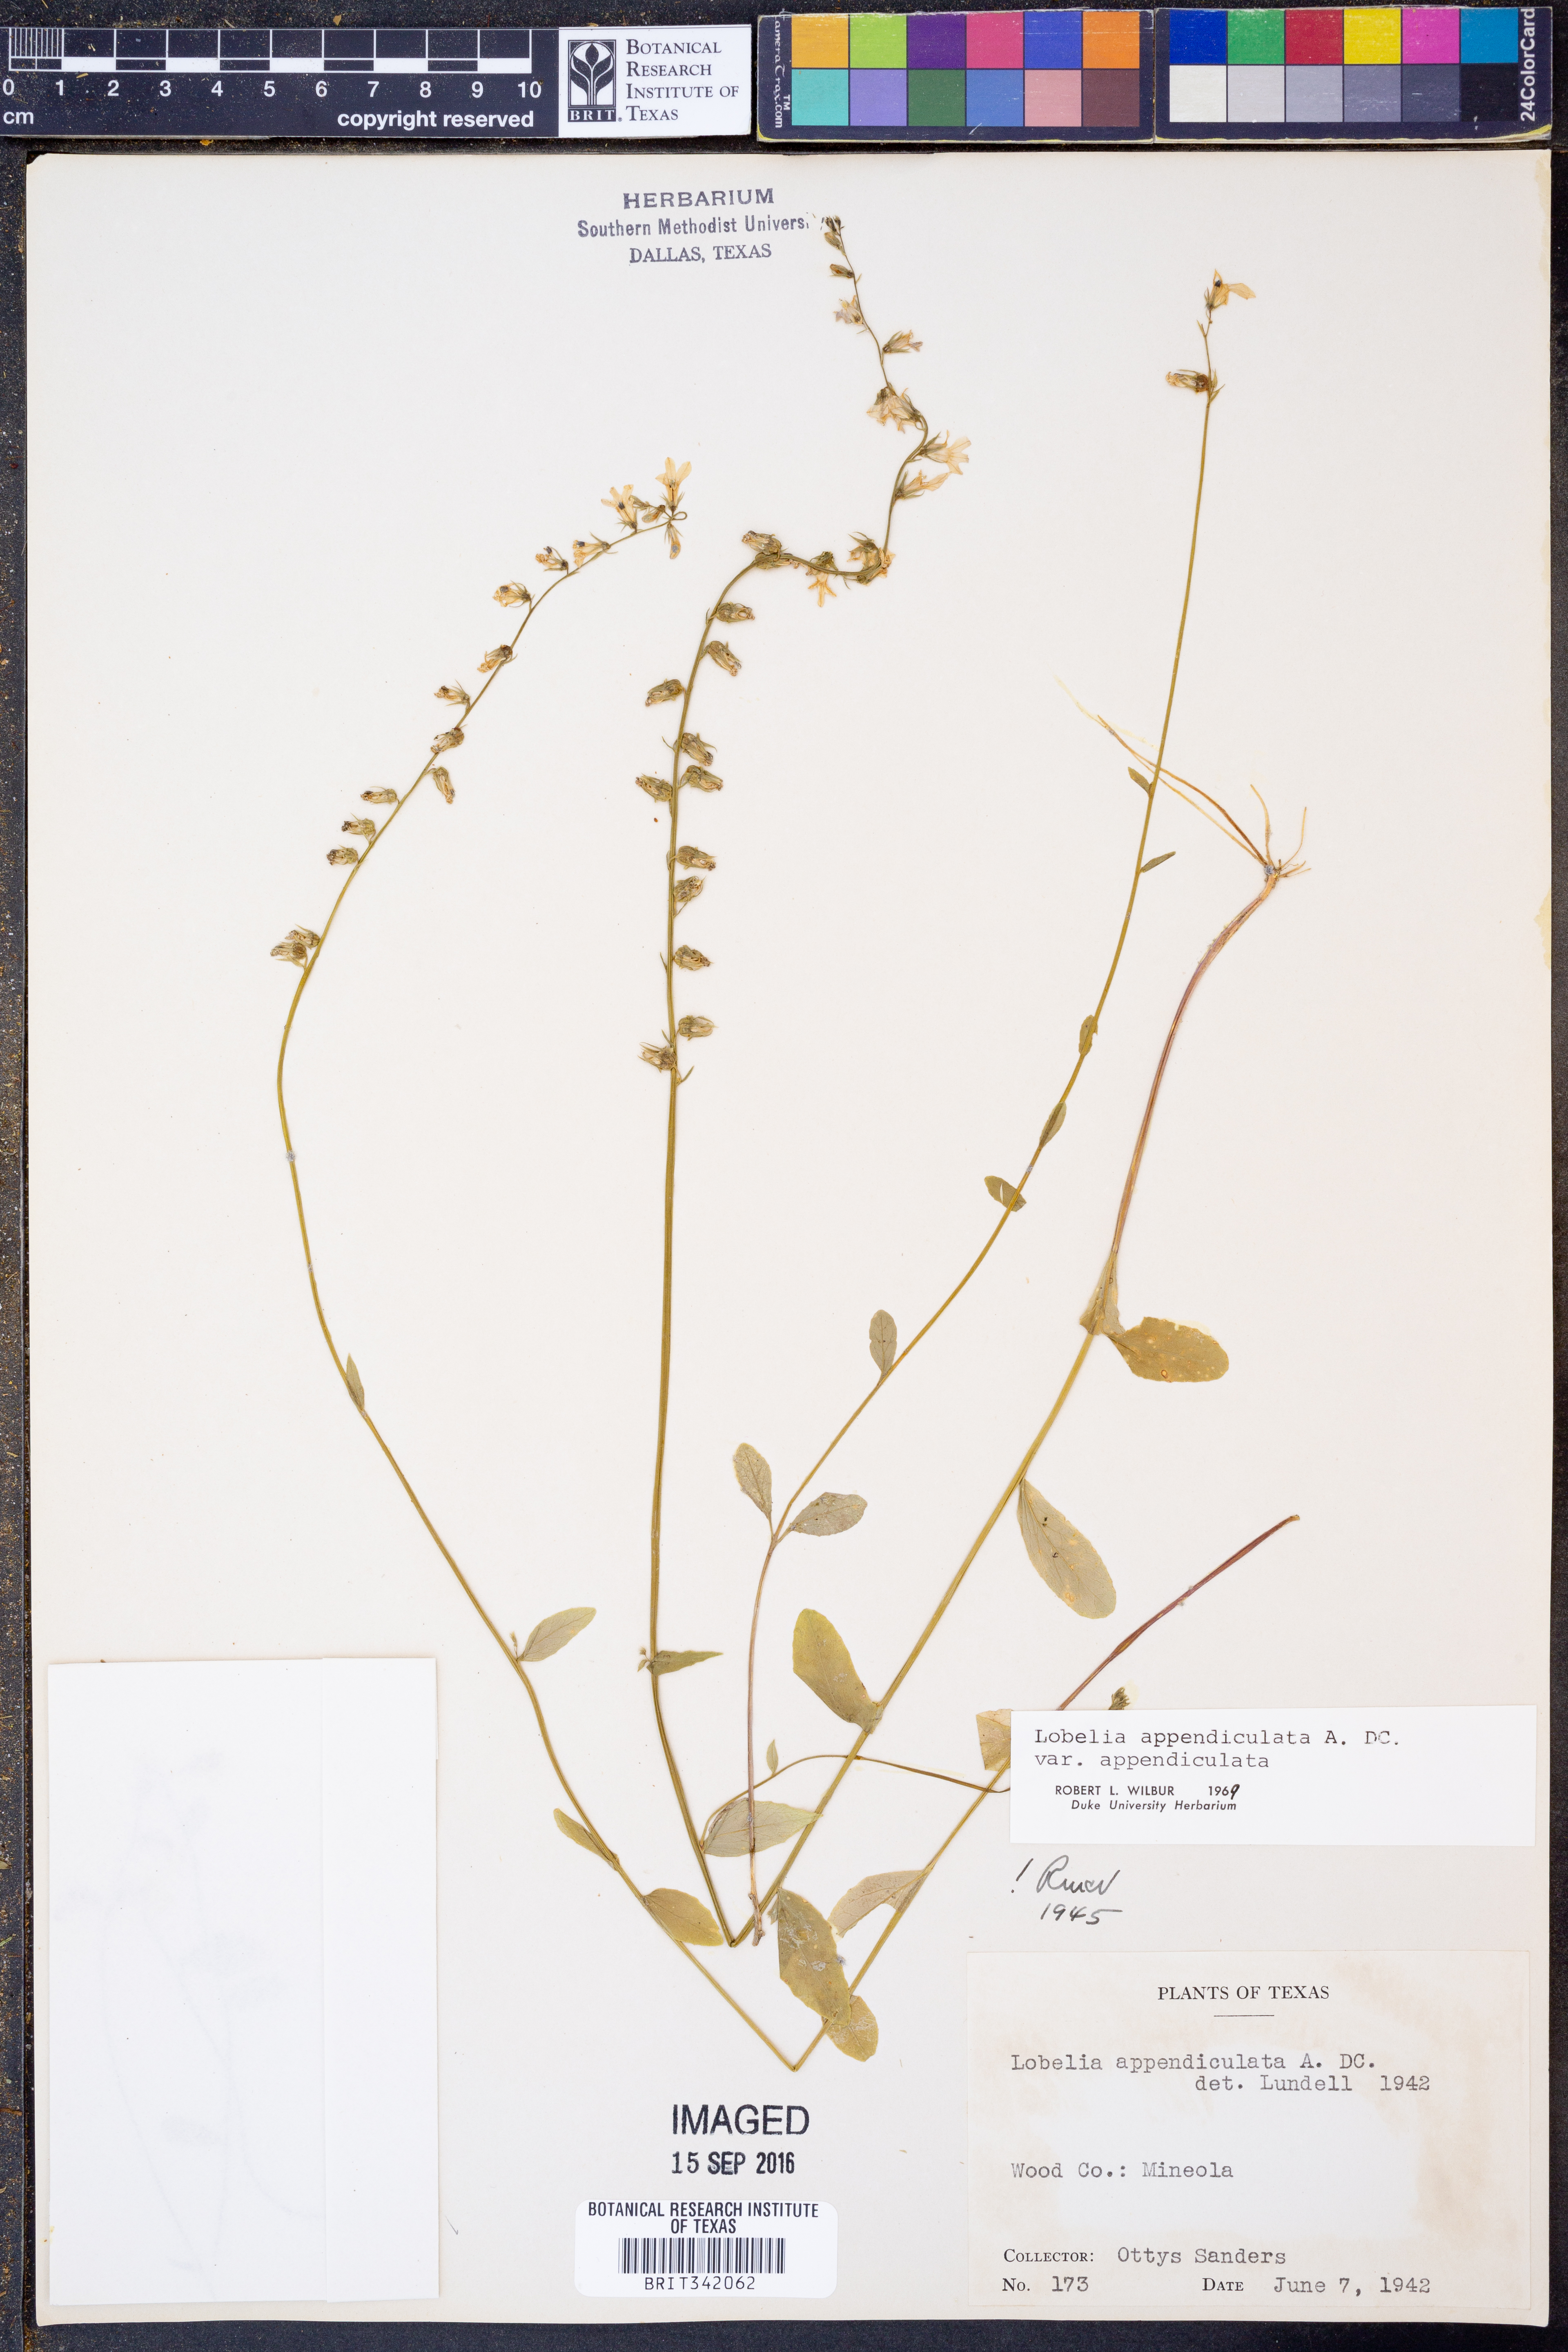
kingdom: Plantae
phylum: Tracheophyta
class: Magnoliopsida
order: Asterales
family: Campanulaceae
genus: Lobelia
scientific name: Lobelia appendiculata
